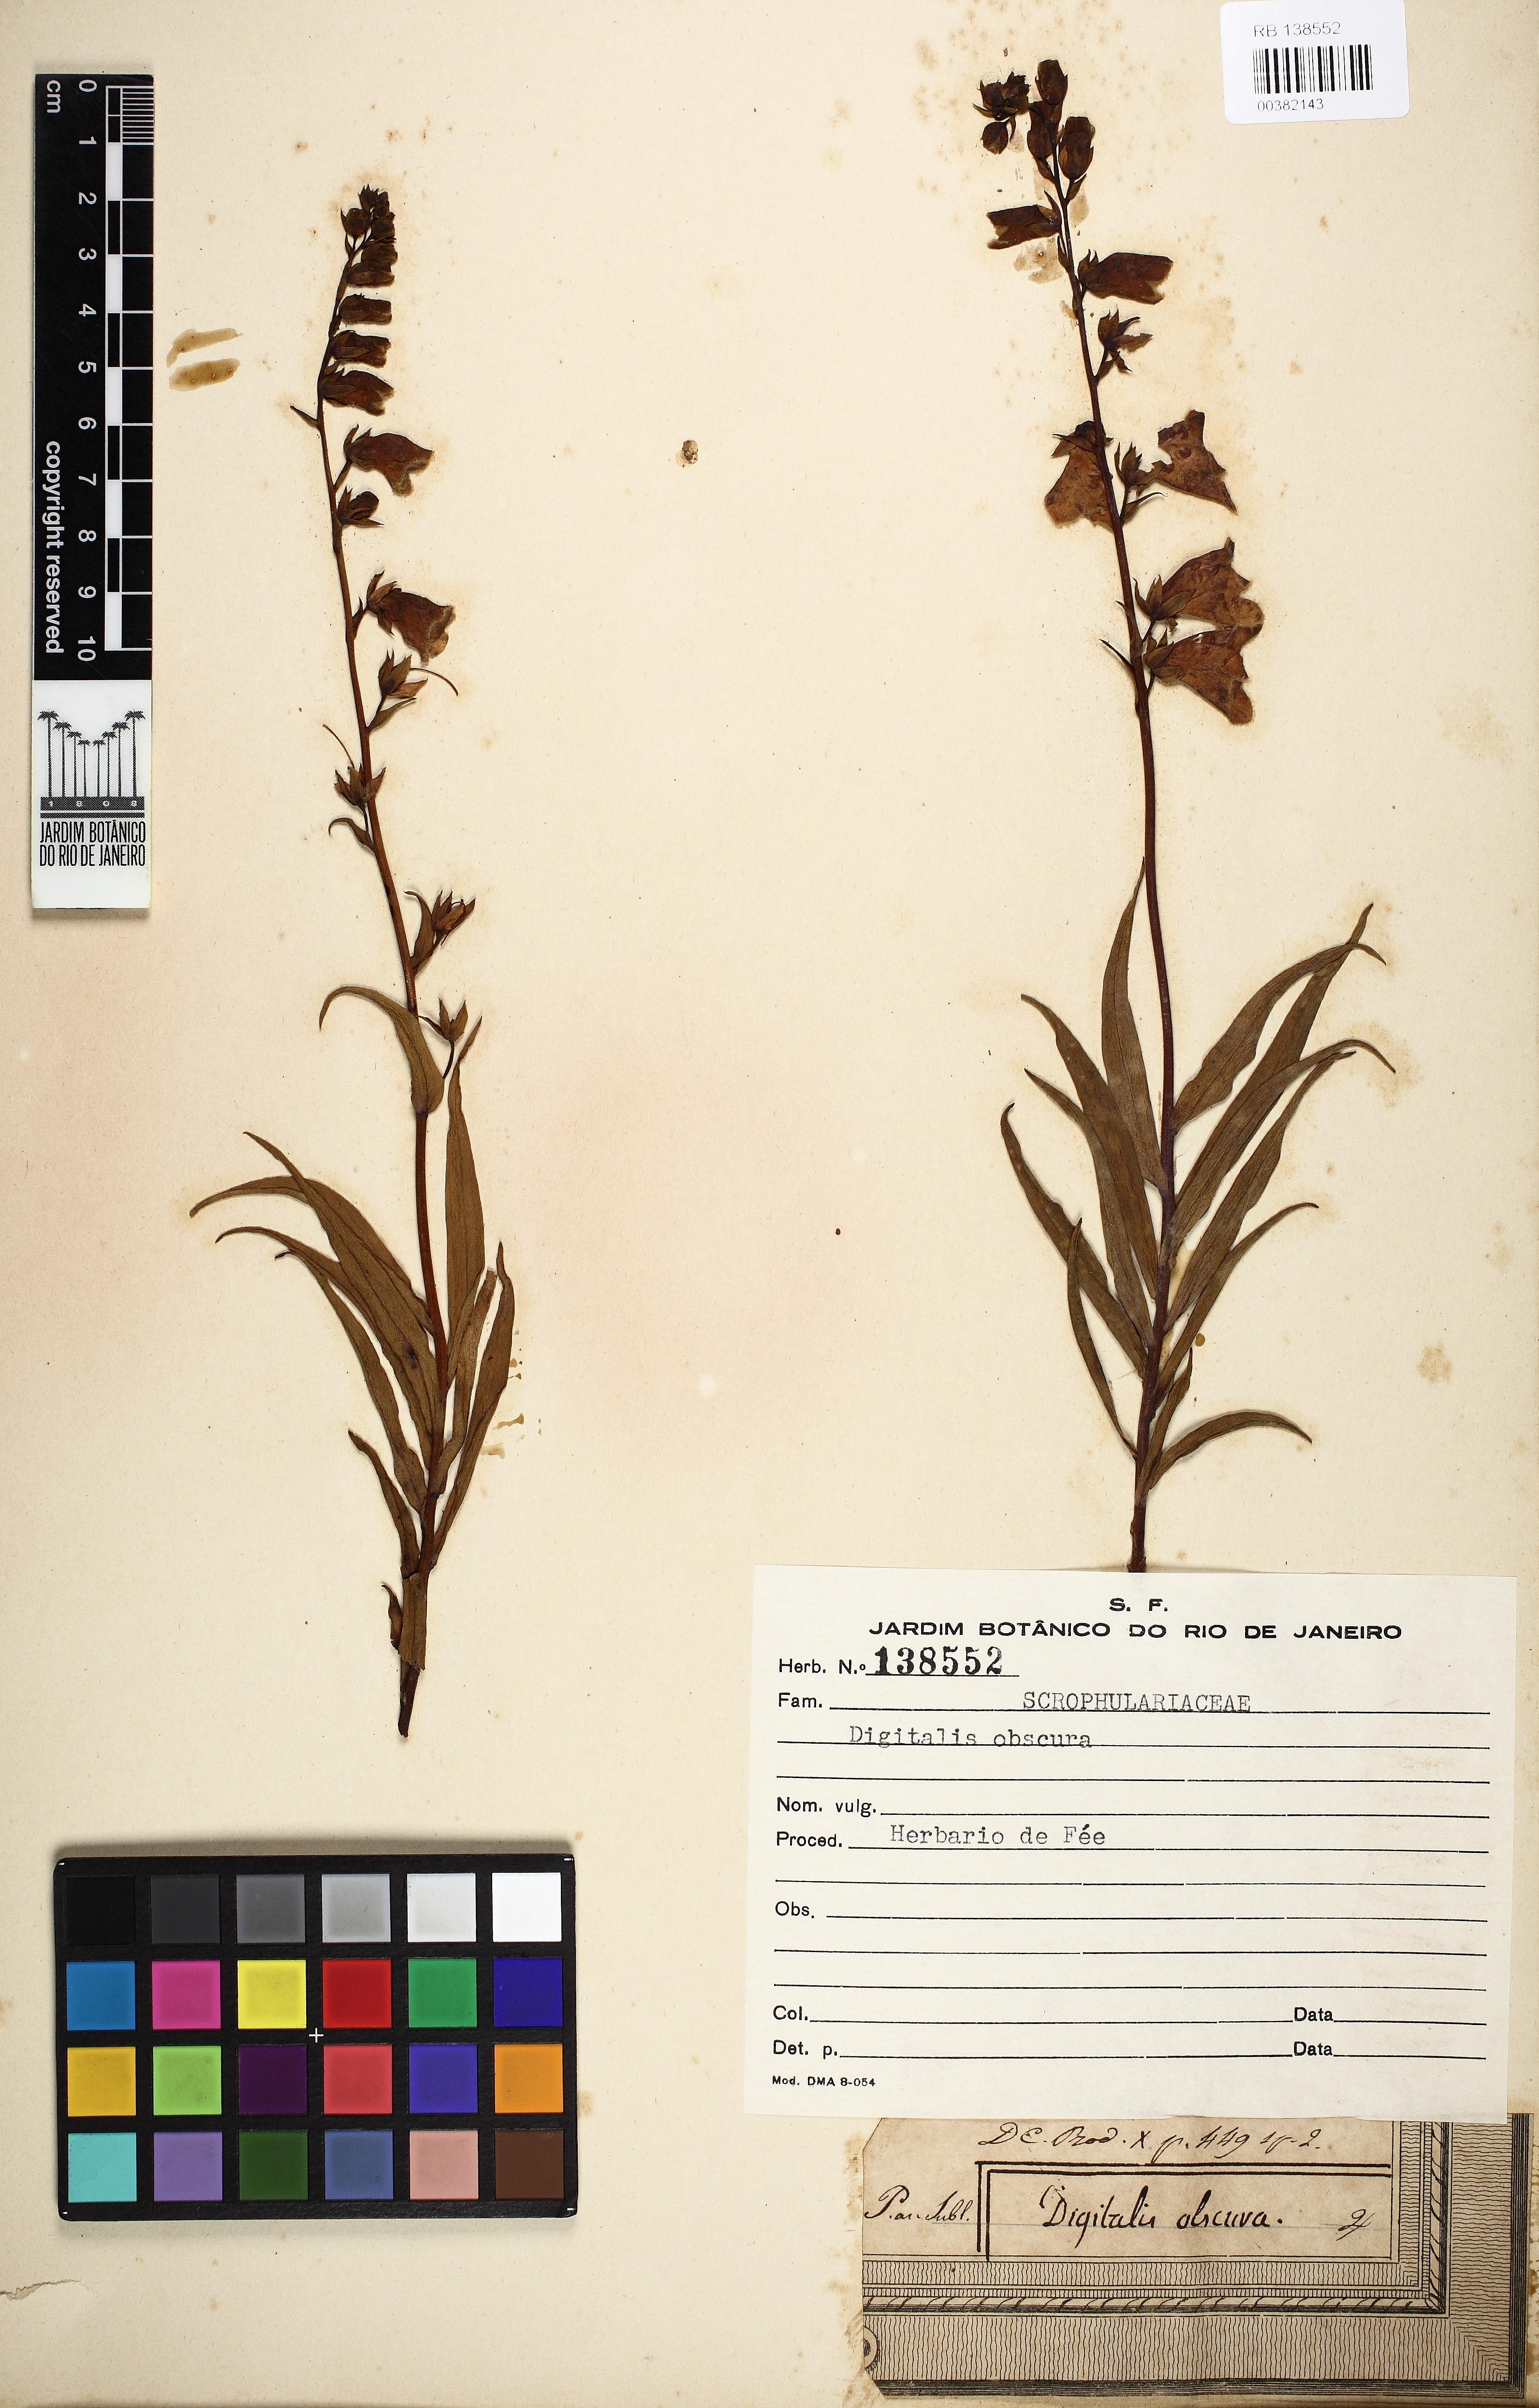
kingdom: Plantae
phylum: Tracheophyta
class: Magnoliopsida
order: Lamiales
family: Plantaginaceae
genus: Digitalis
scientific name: Digitalis obscura
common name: Willow-leaf foxglove
